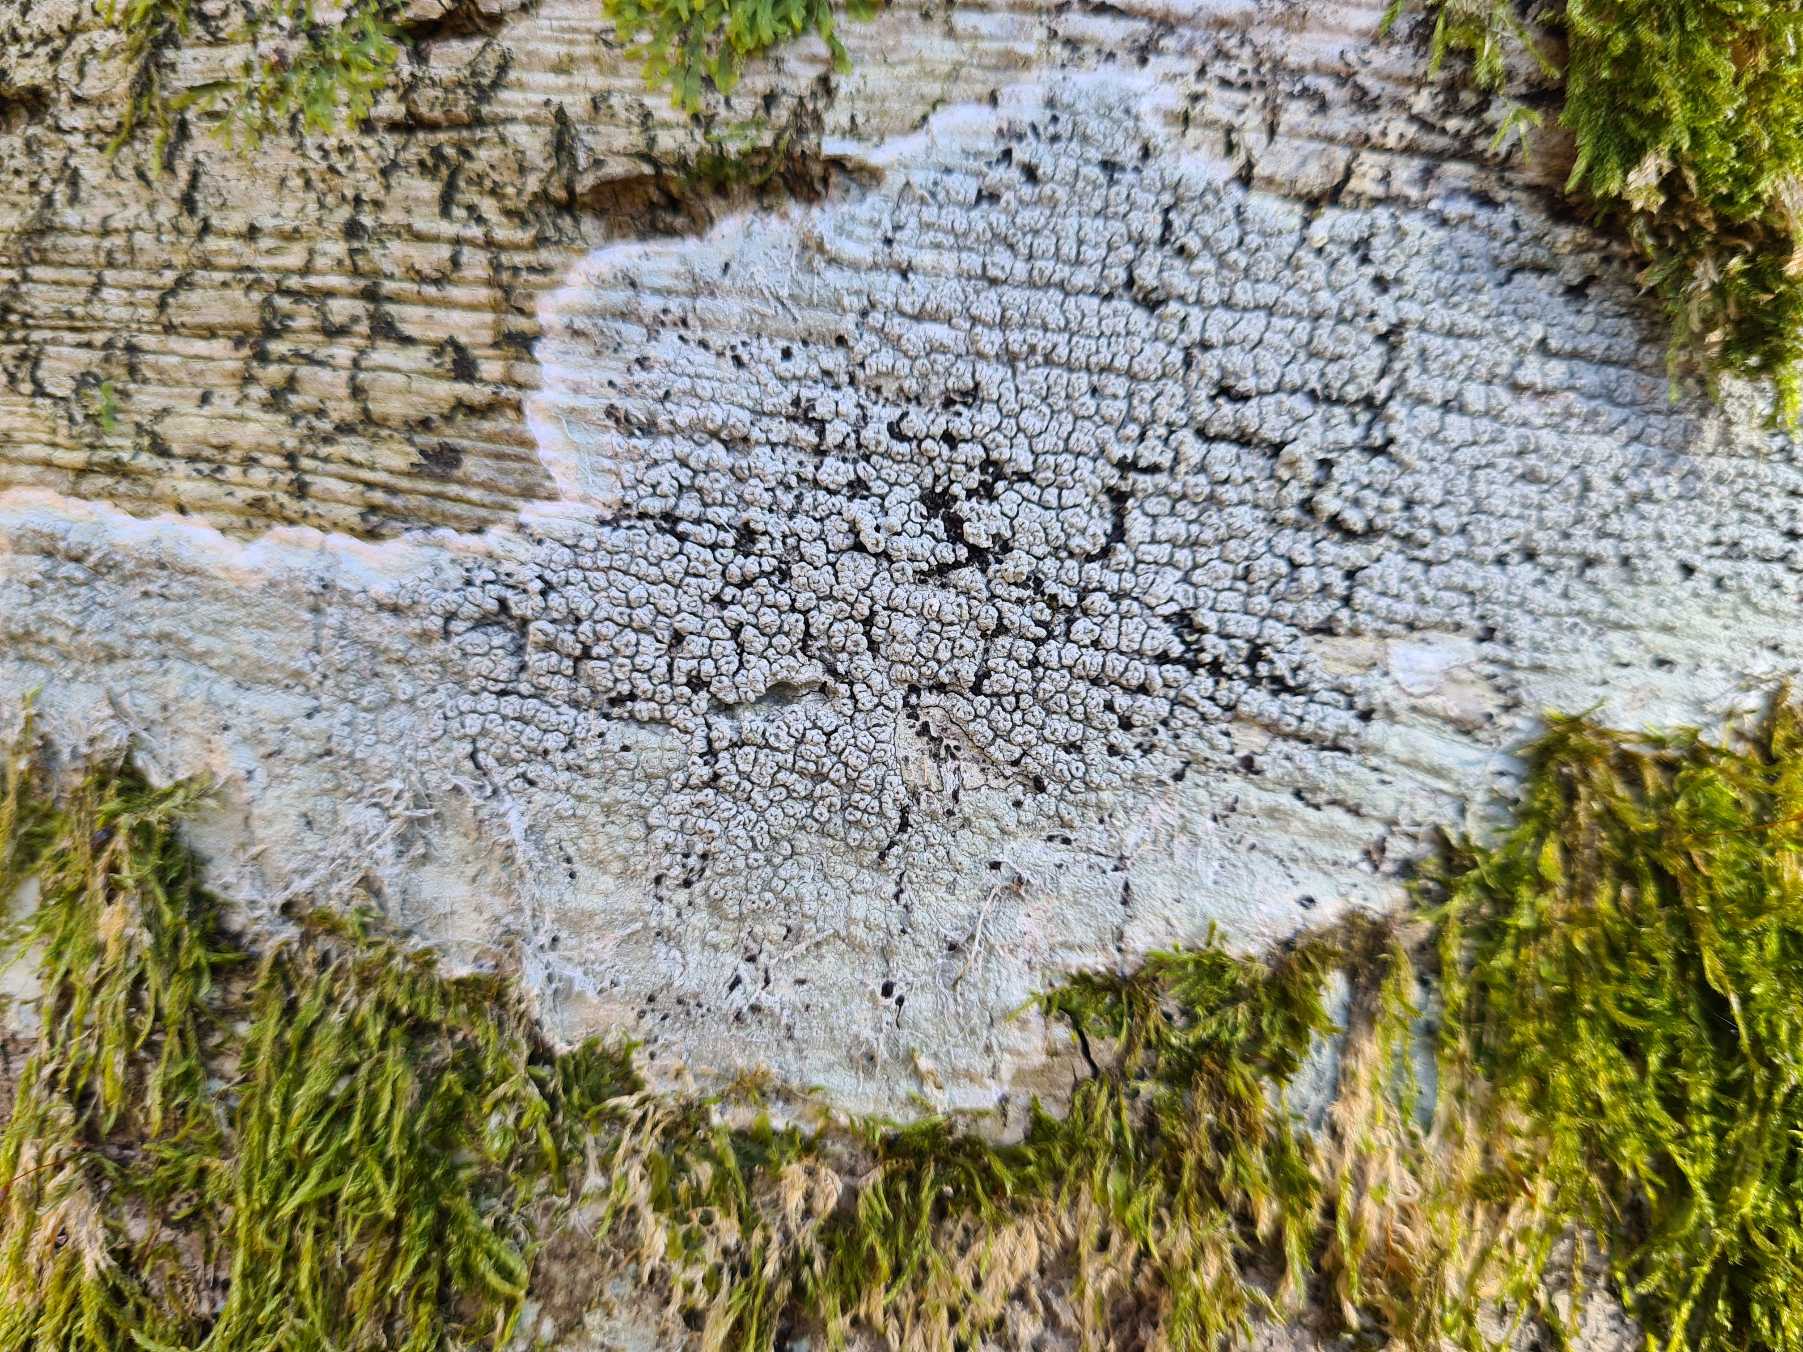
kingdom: Fungi
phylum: Ascomycota
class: Lecanoromycetes
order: Pertusariales
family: Pertusariaceae
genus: Pertusaria
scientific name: Pertusaria hymenea
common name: Åben prikvortelav
